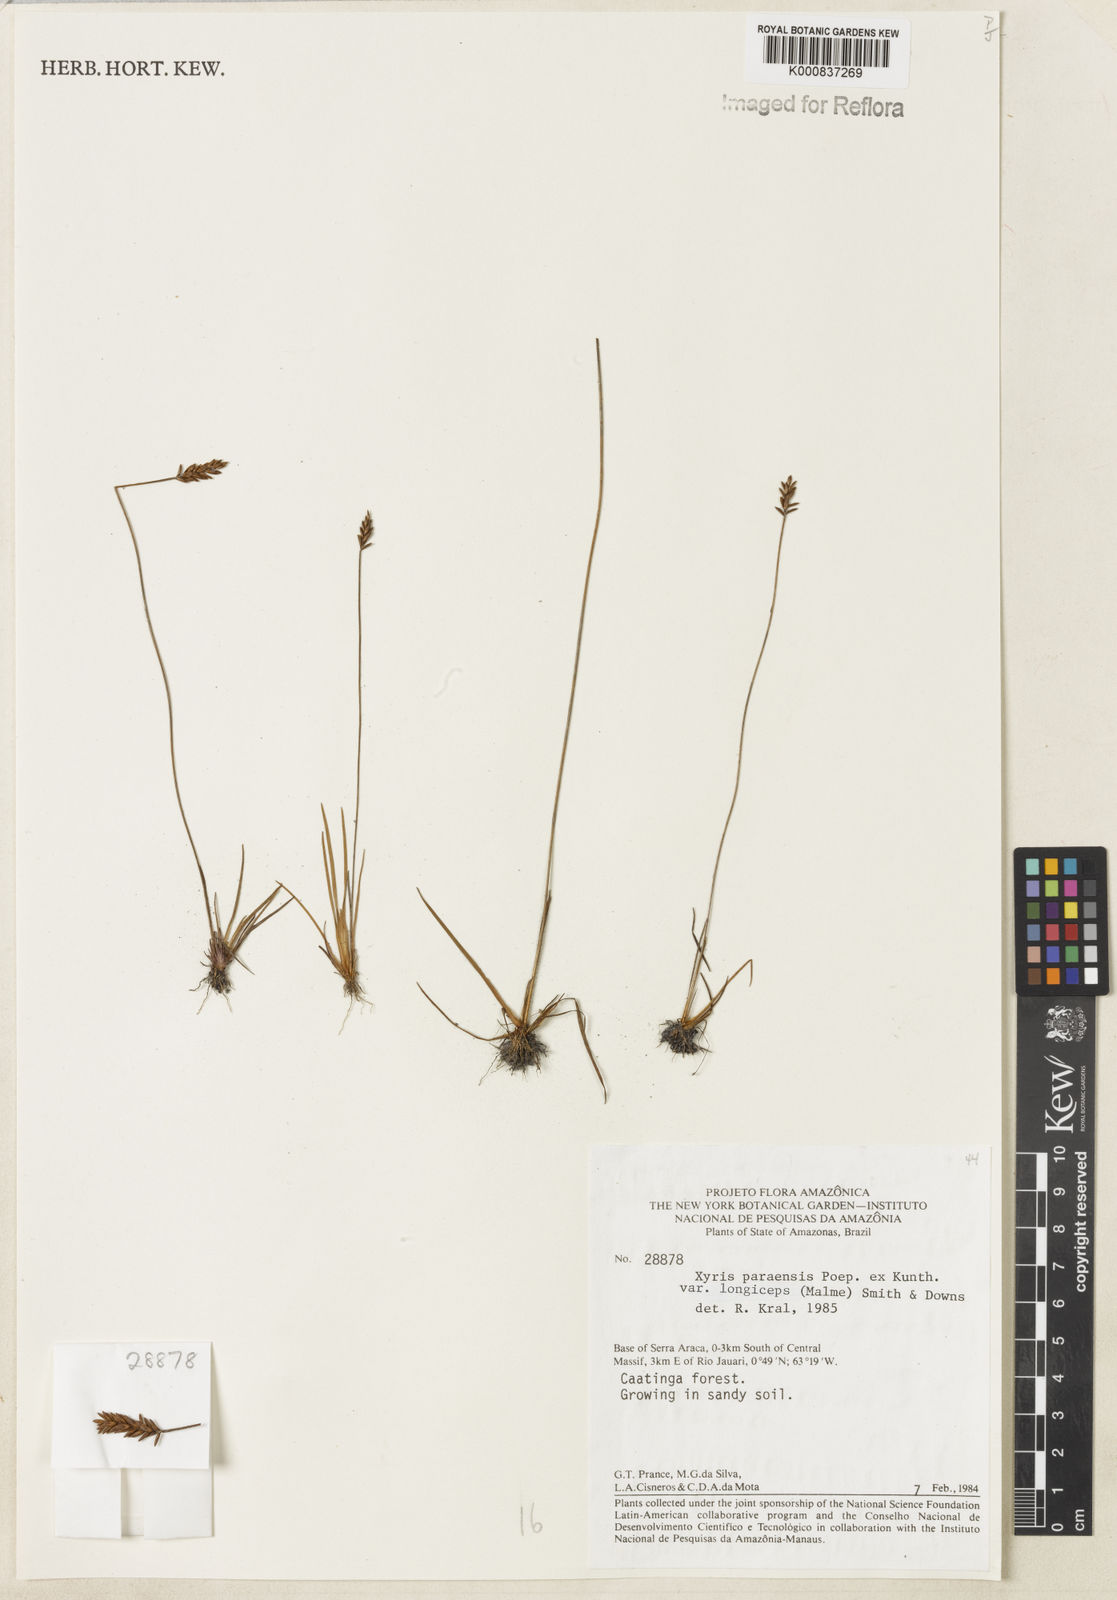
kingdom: Plantae
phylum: Tracheophyta
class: Liliopsida
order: Poales
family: Xyridaceae
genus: Xyris
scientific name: Xyris paraensis
